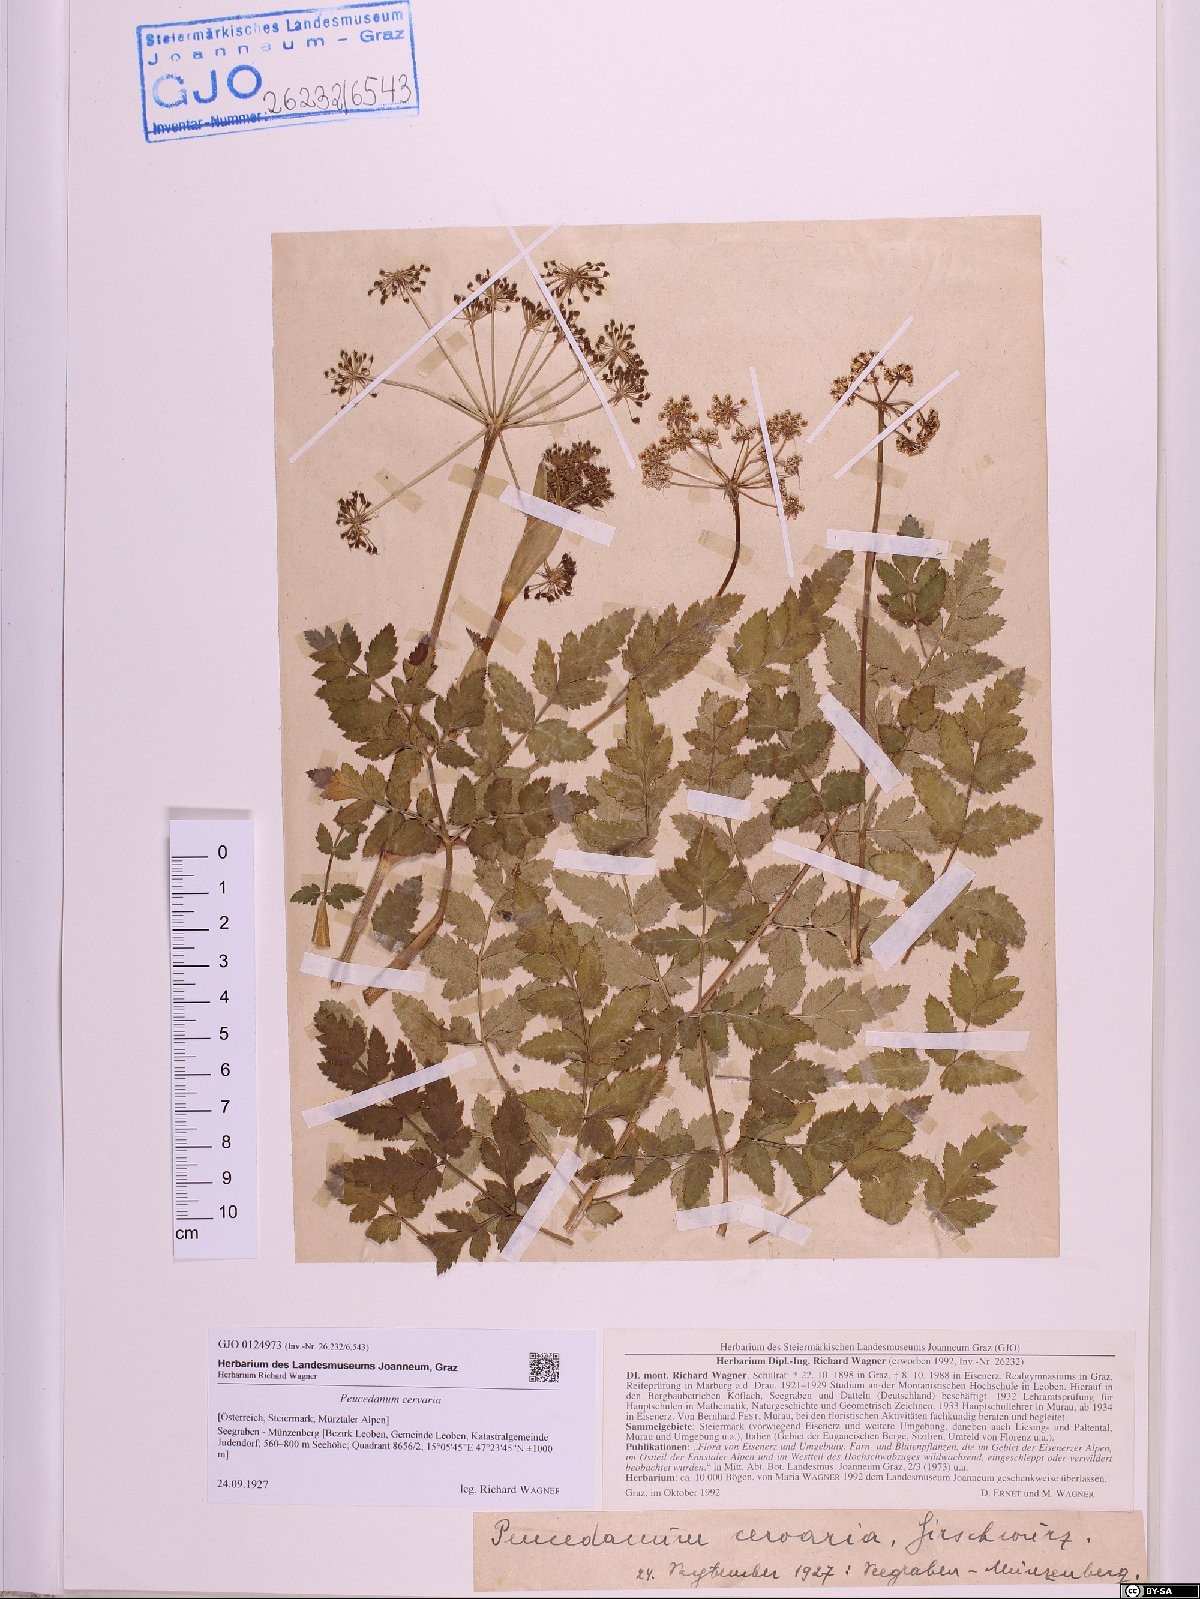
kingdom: Plantae
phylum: Tracheophyta
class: Magnoliopsida
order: Apiales
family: Apiaceae
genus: Cervaria
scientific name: Cervaria rivini
